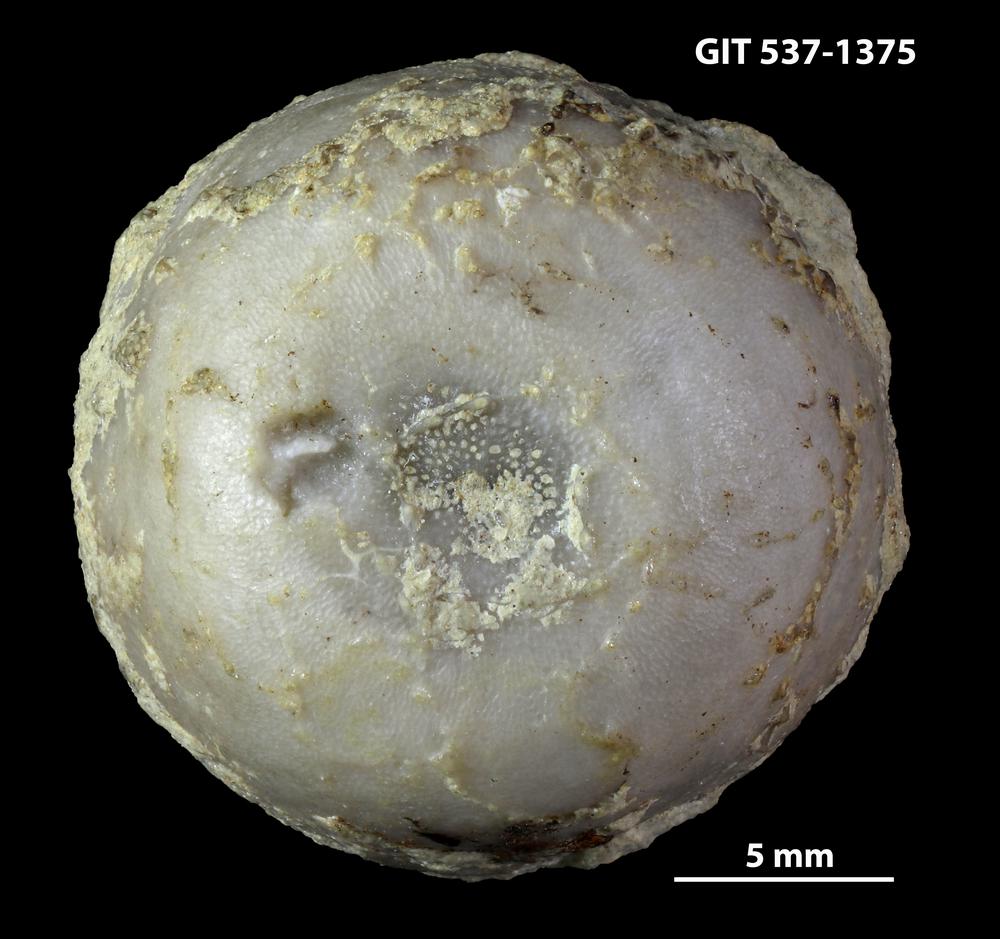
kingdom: Animalia
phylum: Bryozoa
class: Stenolaemata
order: Trepostomatida
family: Diplotrypidae
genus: Diplotrypa
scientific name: Diplotrypa bicornis
